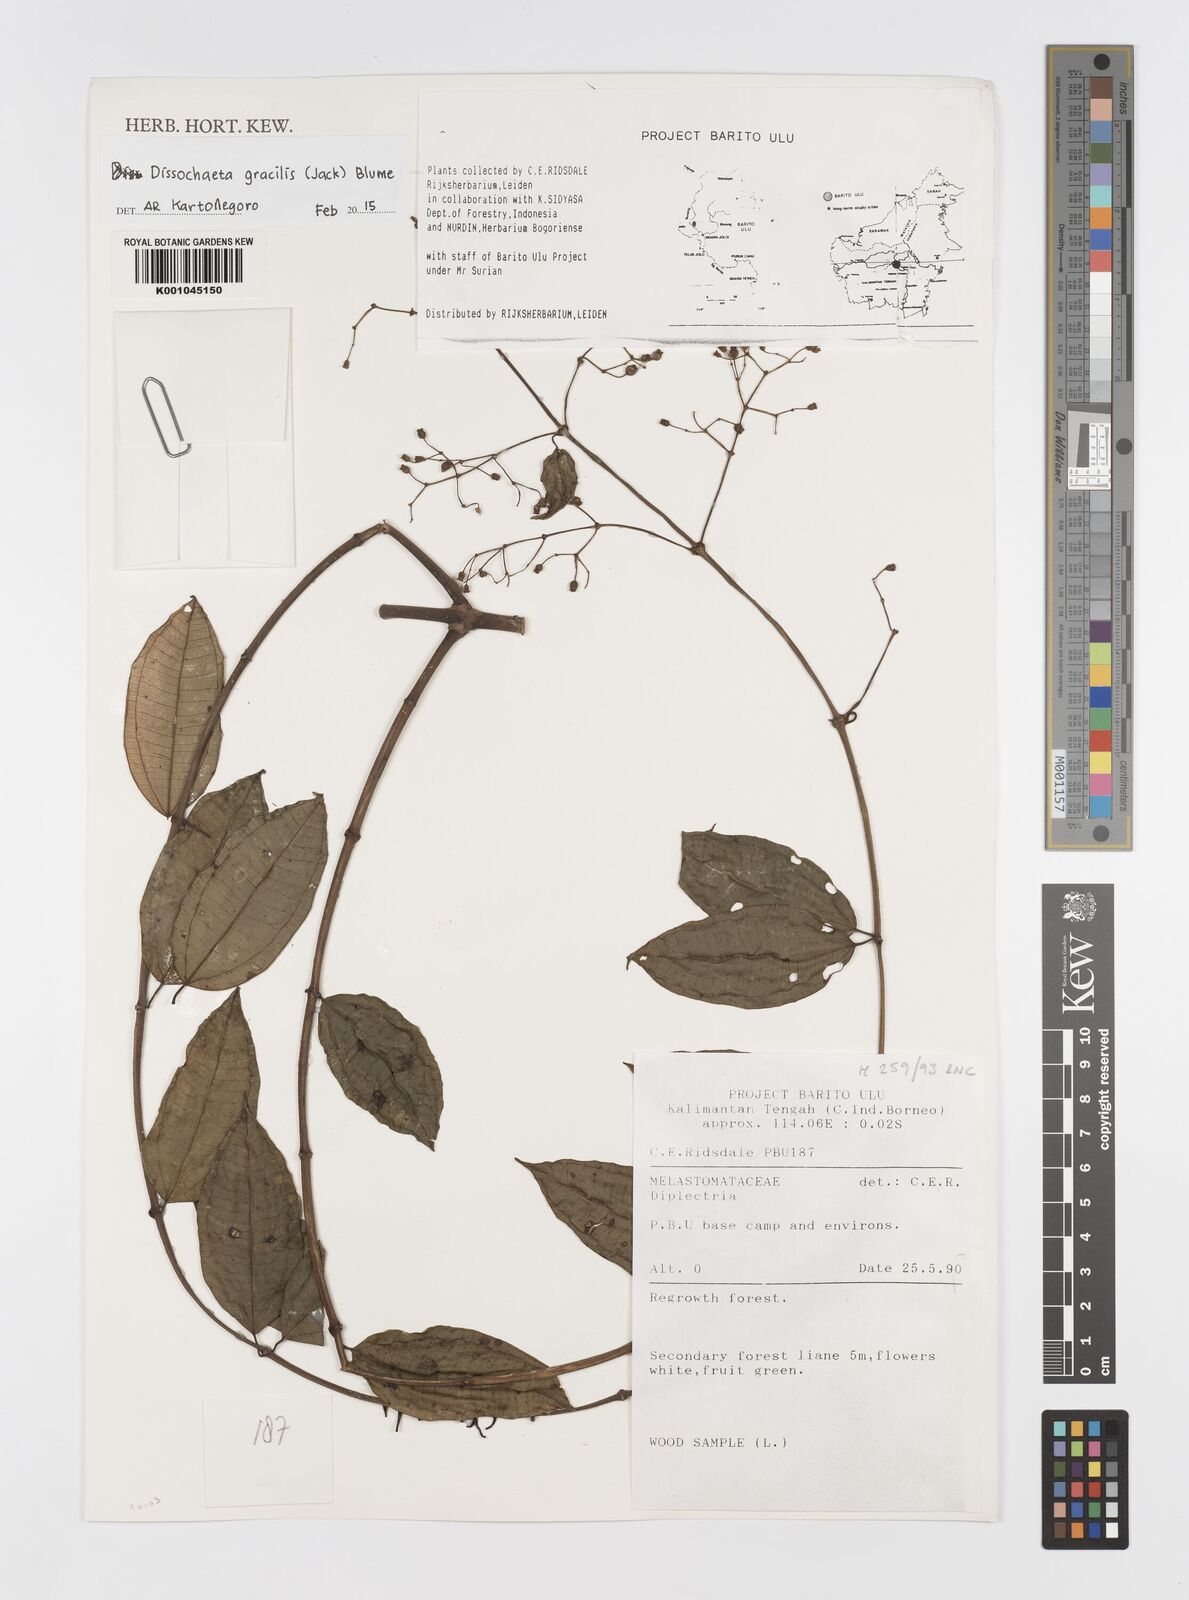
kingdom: Plantae
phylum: Tracheophyta
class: Magnoliopsida
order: Myrtales
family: Melastomataceae
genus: Dissochaeta
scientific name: Dissochaeta gracilis
